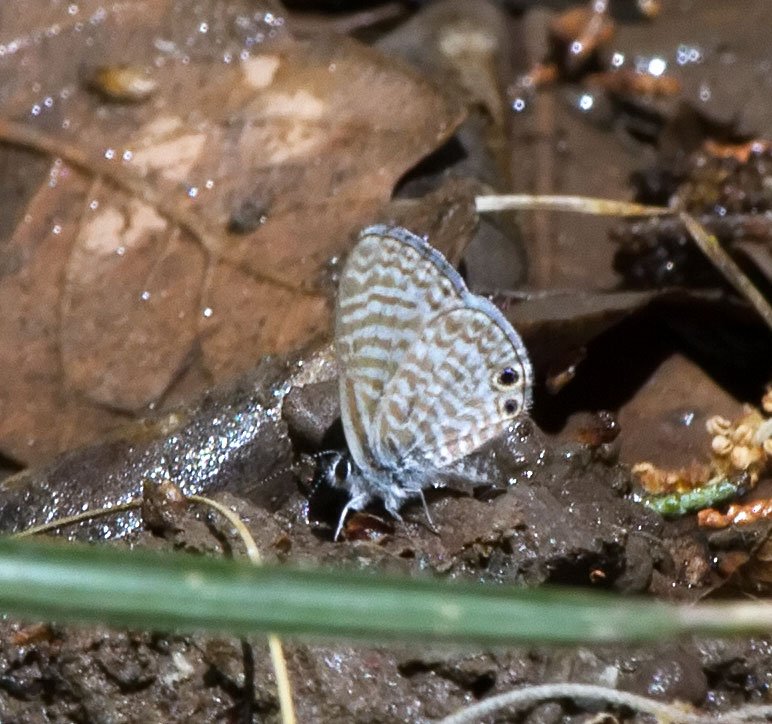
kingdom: Animalia
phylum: Arthropoda
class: Insecta
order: Lepidoptera
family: Lycaenidae
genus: Leptotes
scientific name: Leptotes marina
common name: Marine Blue
